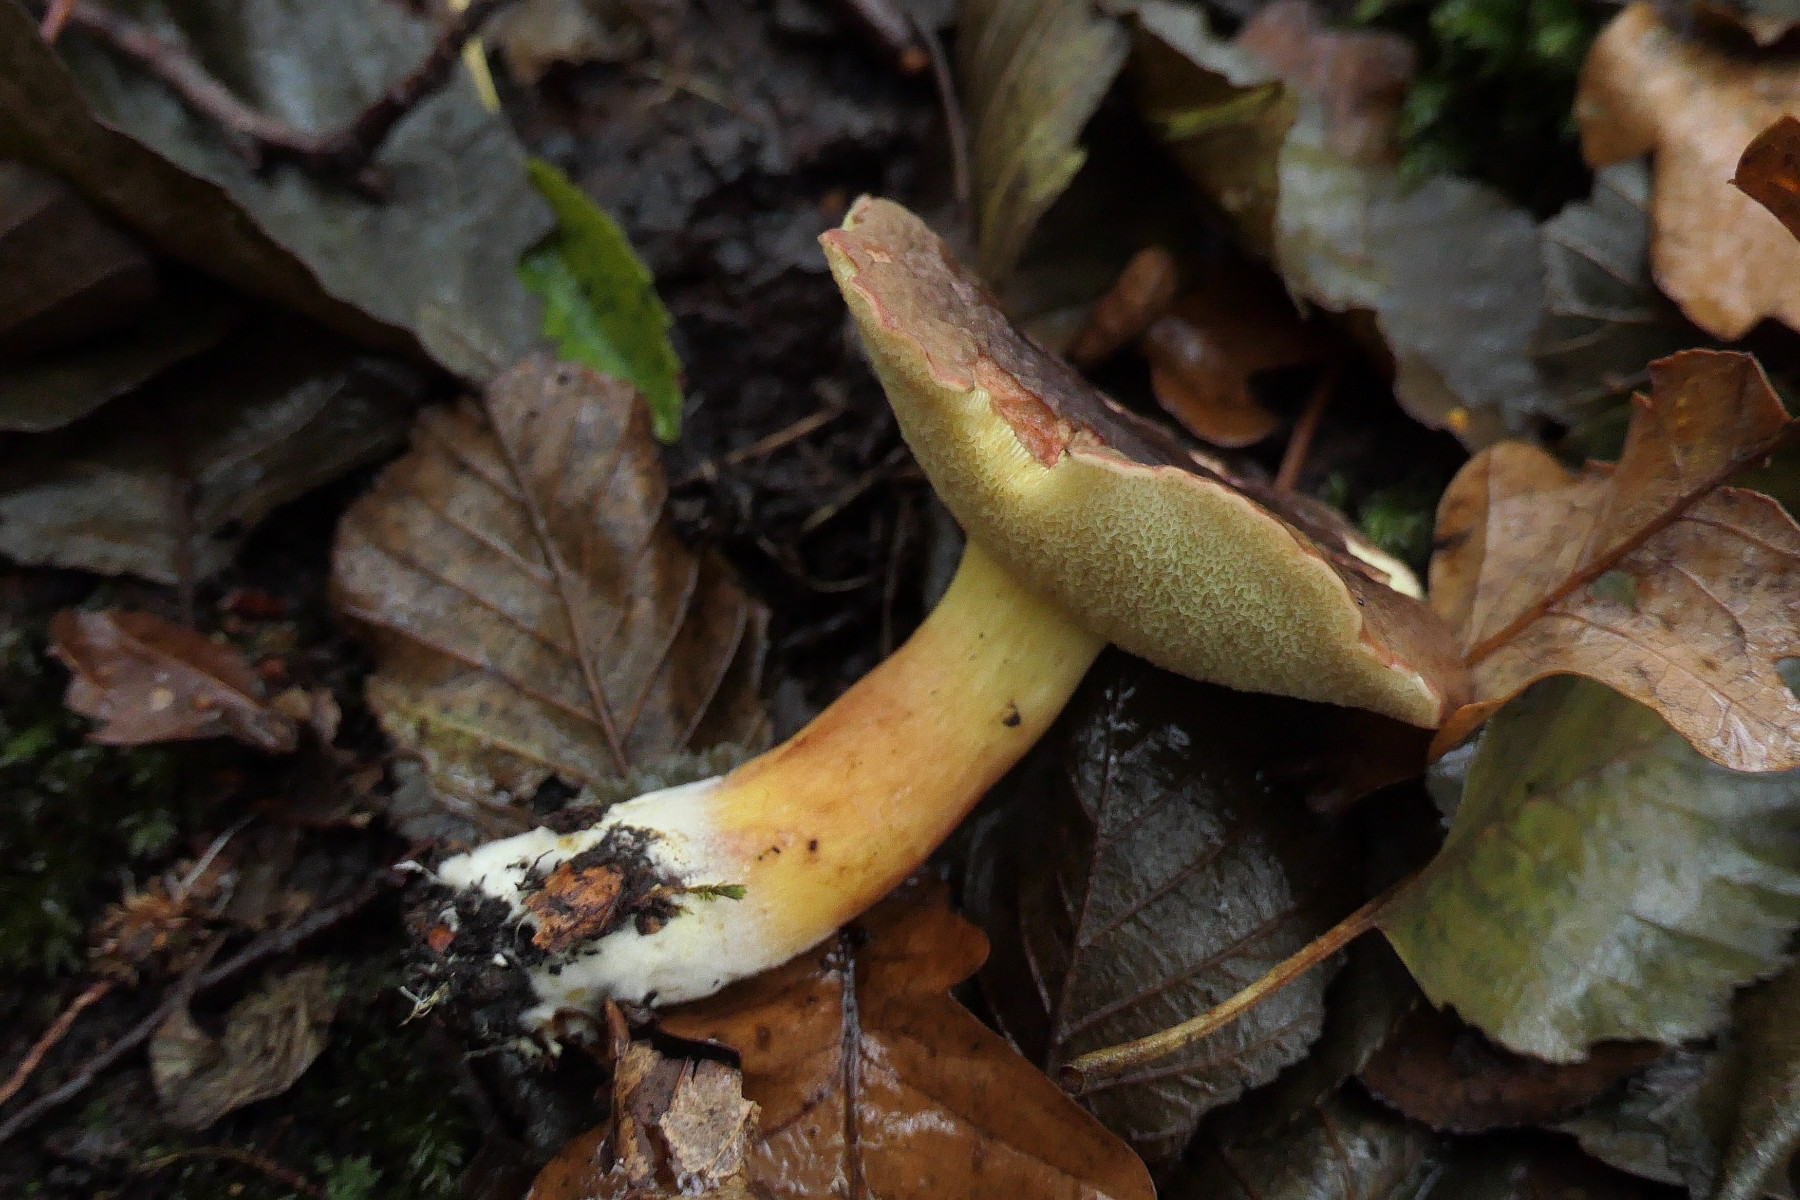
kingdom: Fungi
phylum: Basidiomycota
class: Agaricomycetes
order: Boletales
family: Boletaceae
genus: Xerocomellus
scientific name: Xerocomellus pruinatus
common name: dugget rørhat
